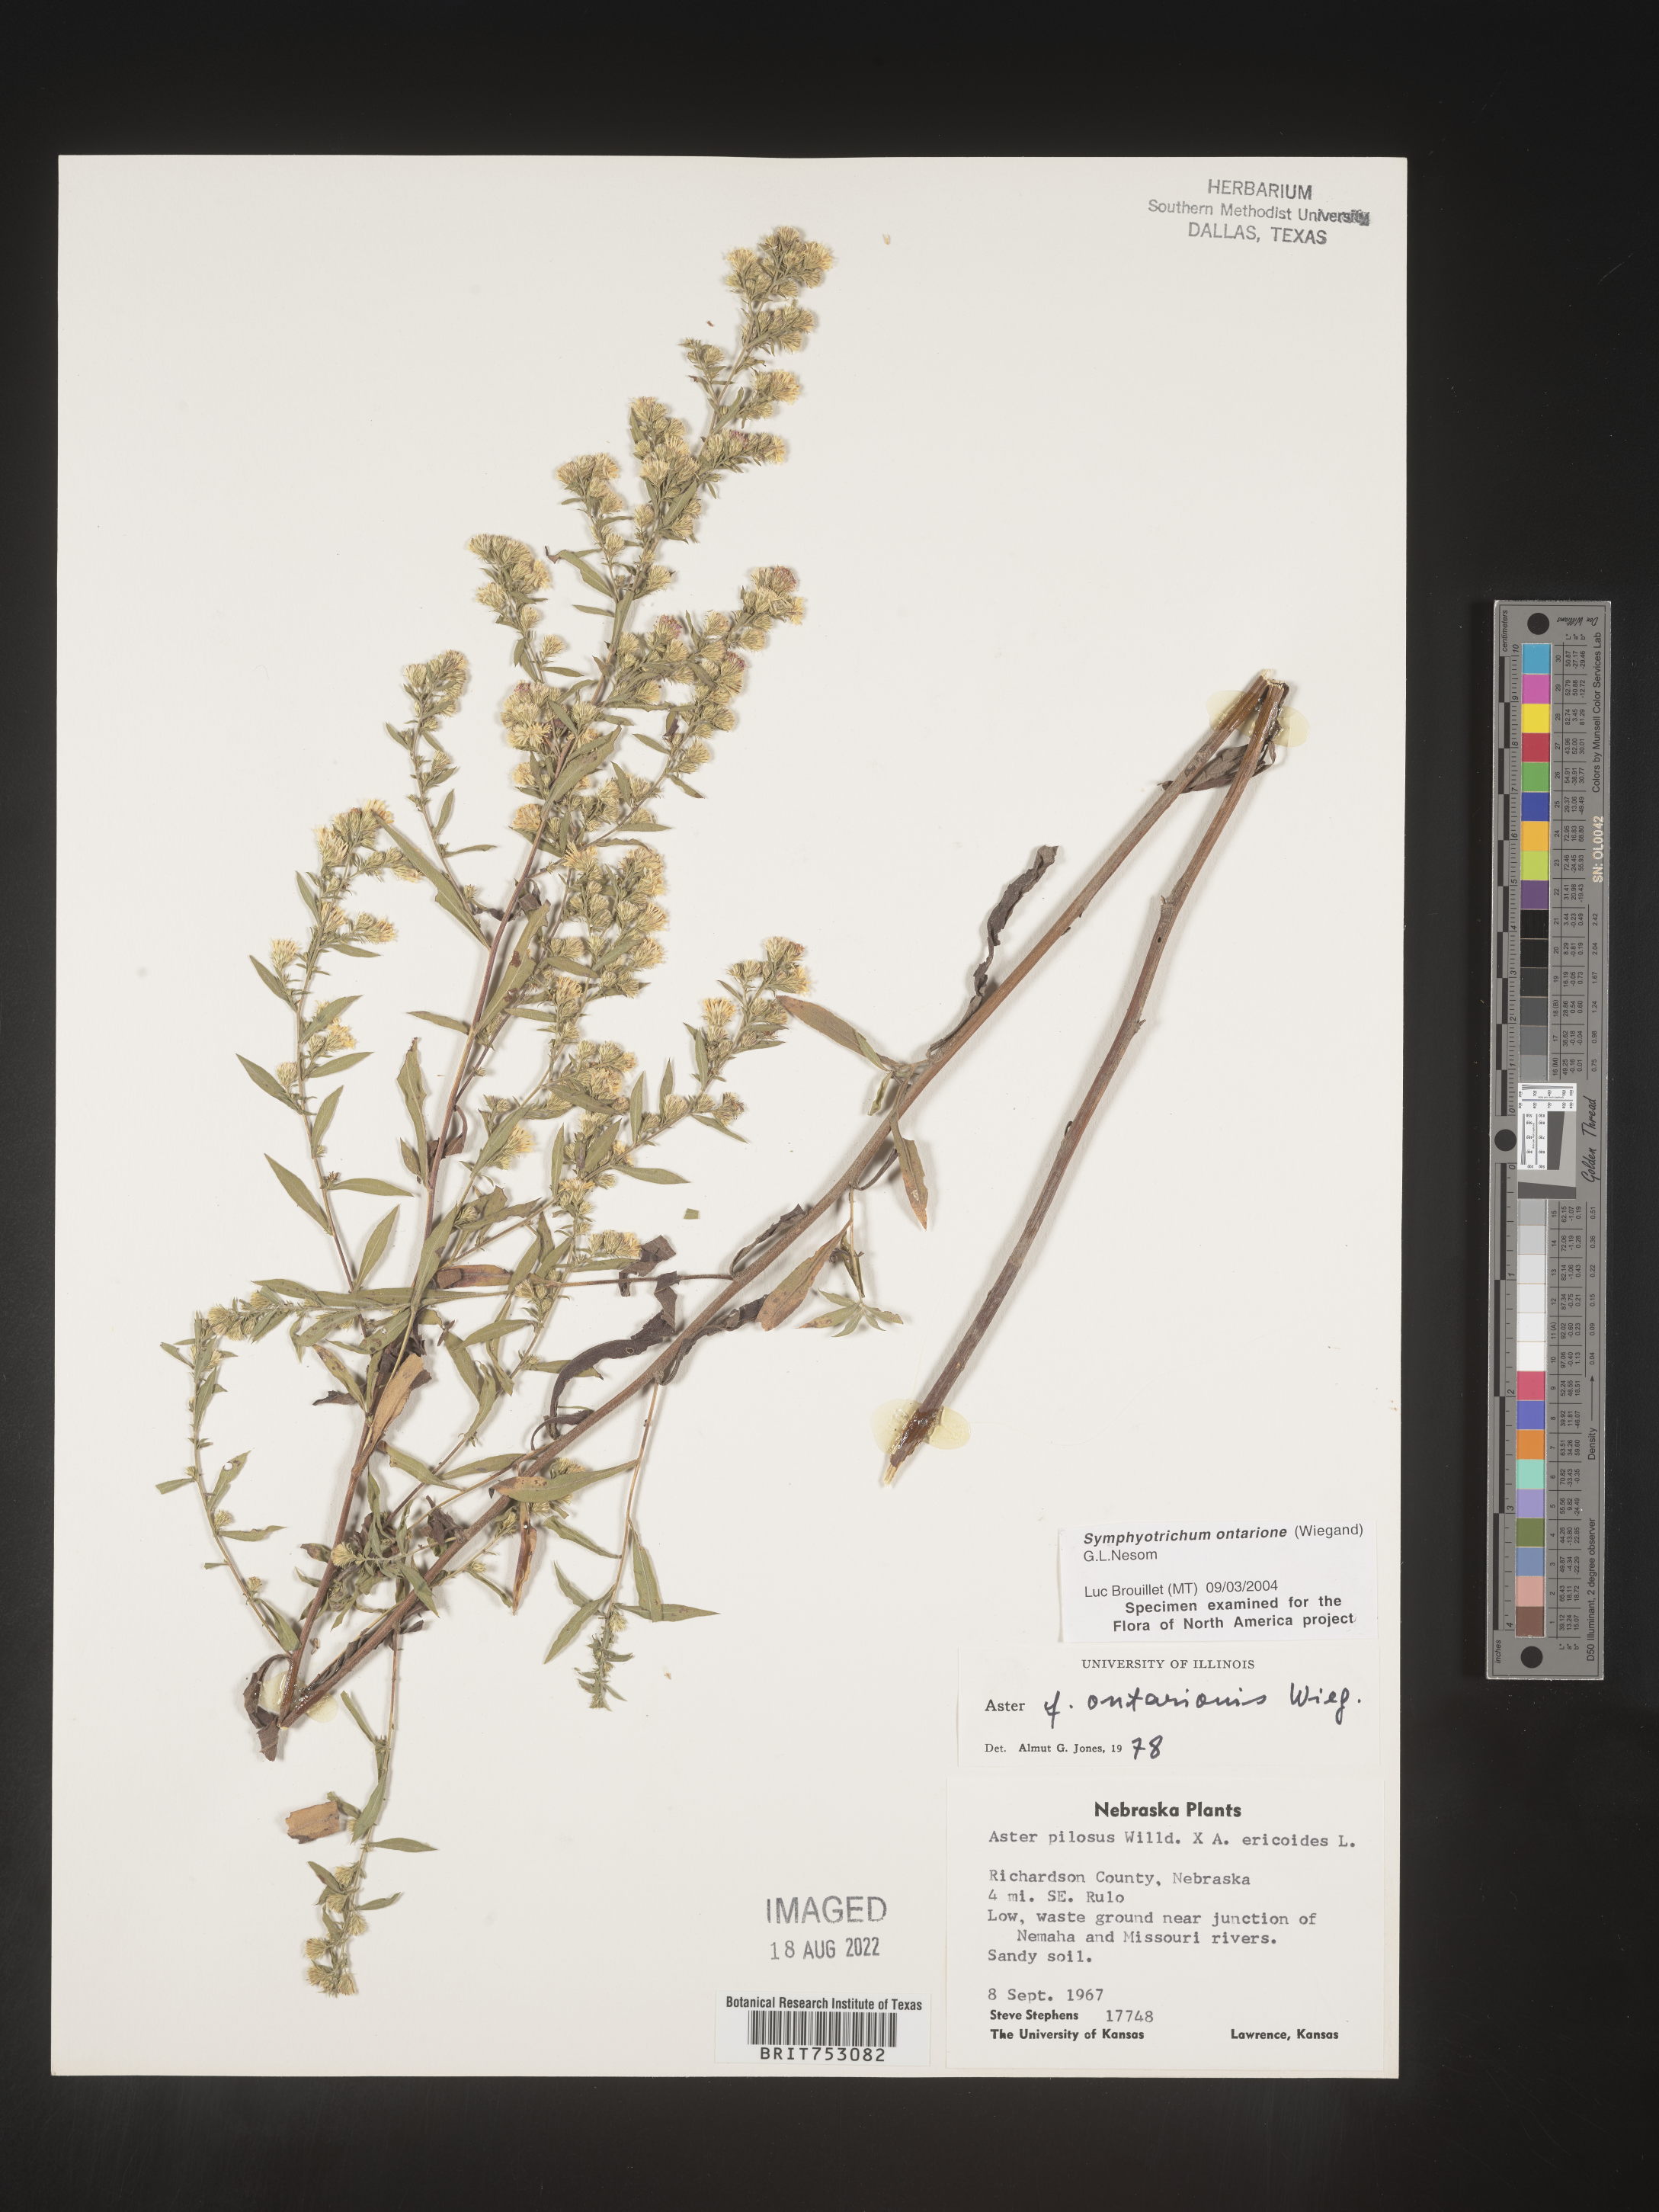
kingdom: Plantae
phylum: Tracheophyta
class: Magnoliopsida
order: Asterales
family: Asteraceae
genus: Symphyotrichum
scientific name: Symphyotrichum ontarionis
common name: Bottomland aster
